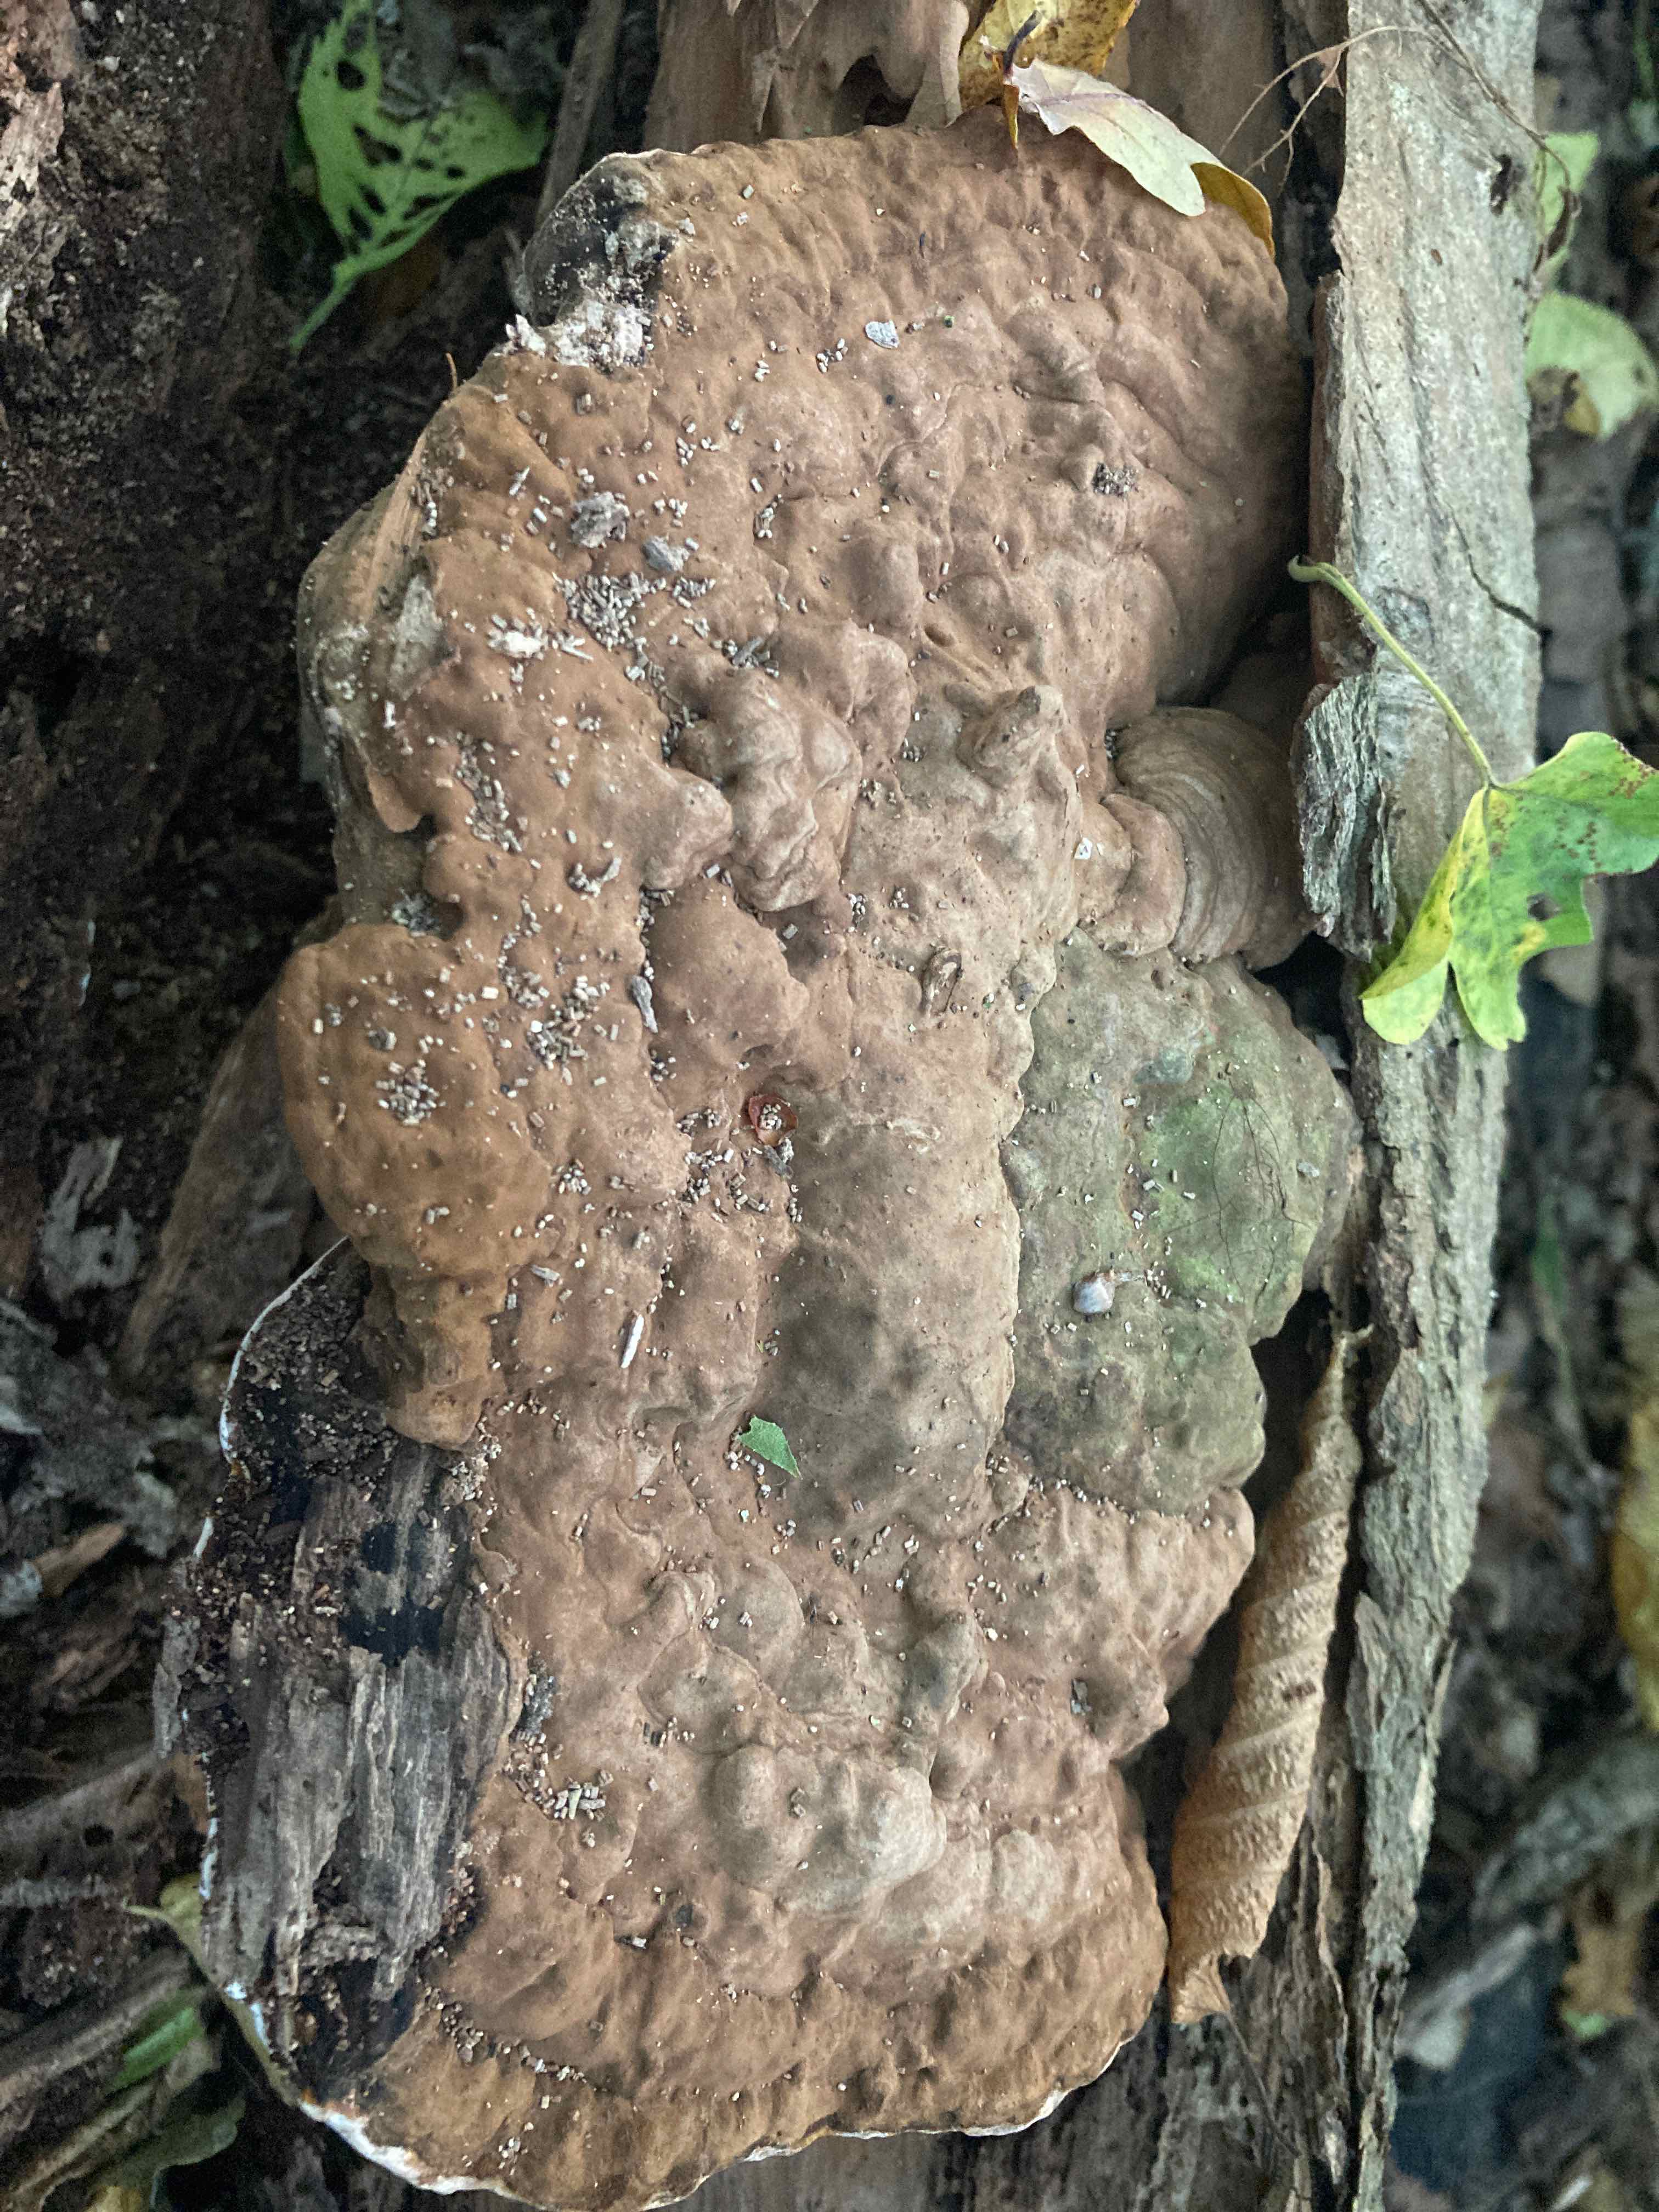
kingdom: Fungi
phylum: Basidiomycota
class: Agaricomycetes
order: Polyporales
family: Polyporaceae
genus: Ganoderma
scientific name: Ganoderma applanatum
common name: flad lakporesvamp
